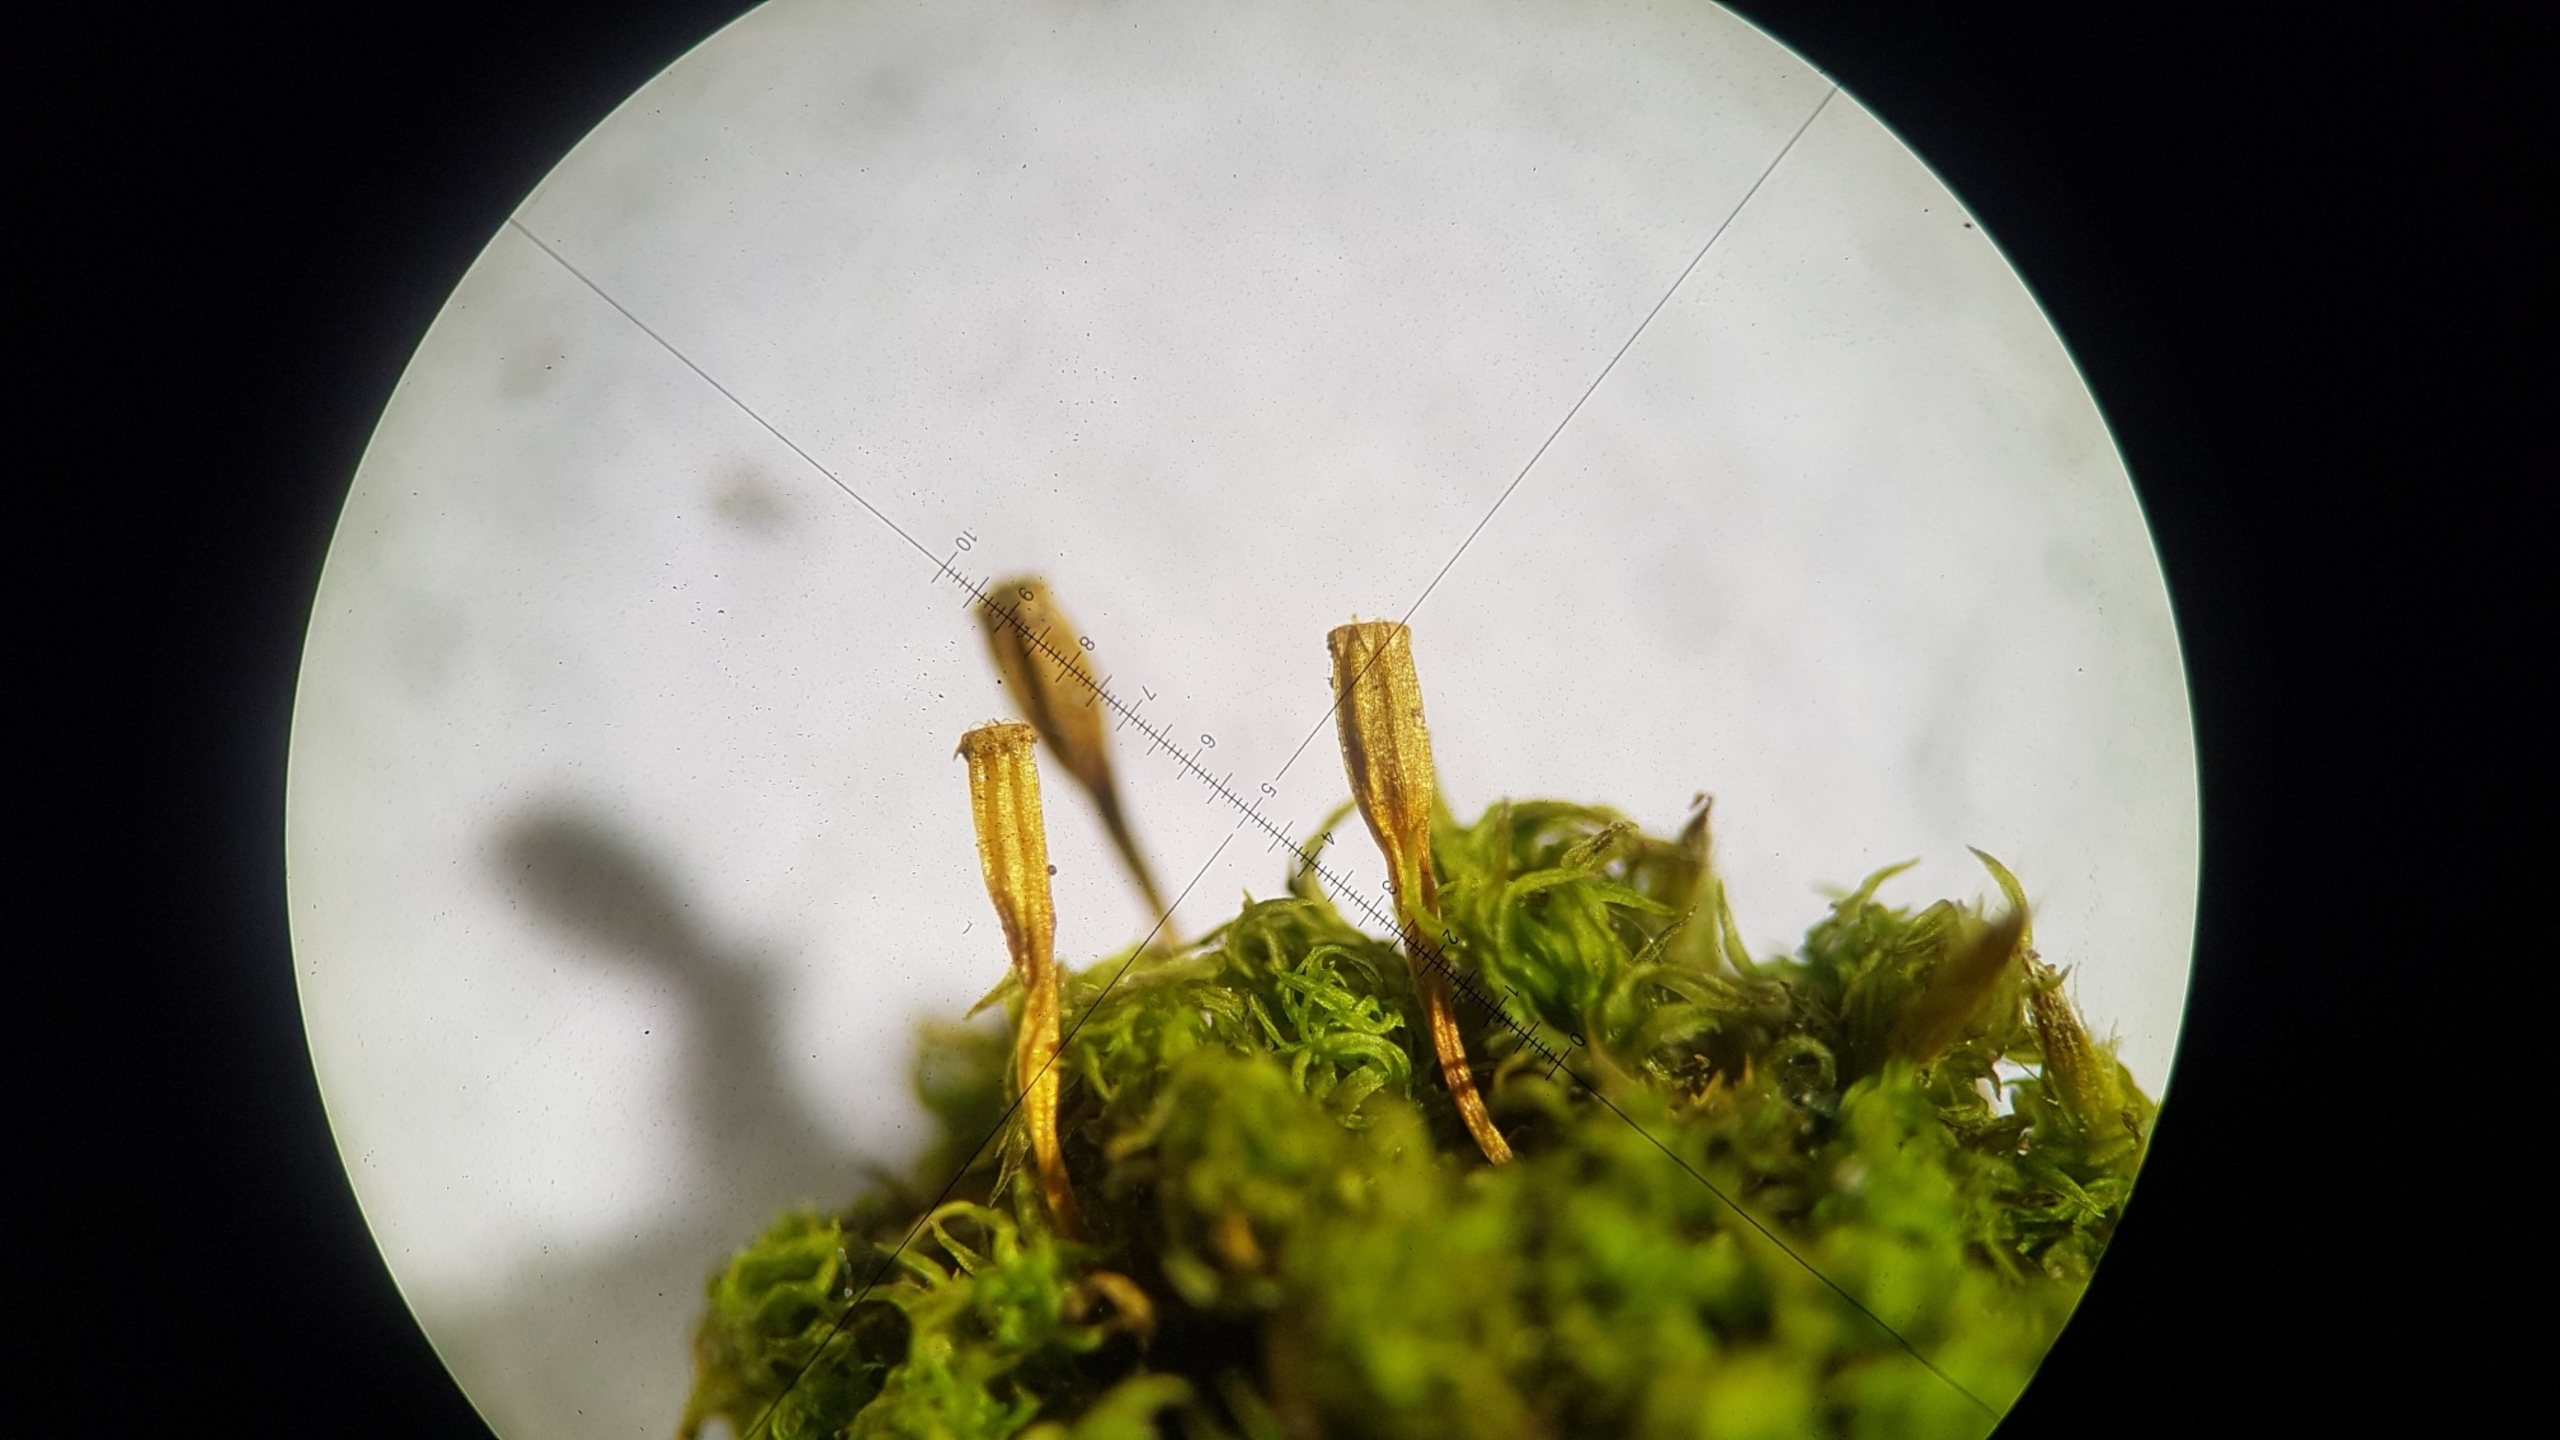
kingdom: Plantae
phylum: Bryophyta
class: Bryopsida
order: Orthotrichales
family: Orthotrichaceae
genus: Ulota
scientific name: Ulota intermedia
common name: Mellem-låddenhætte
